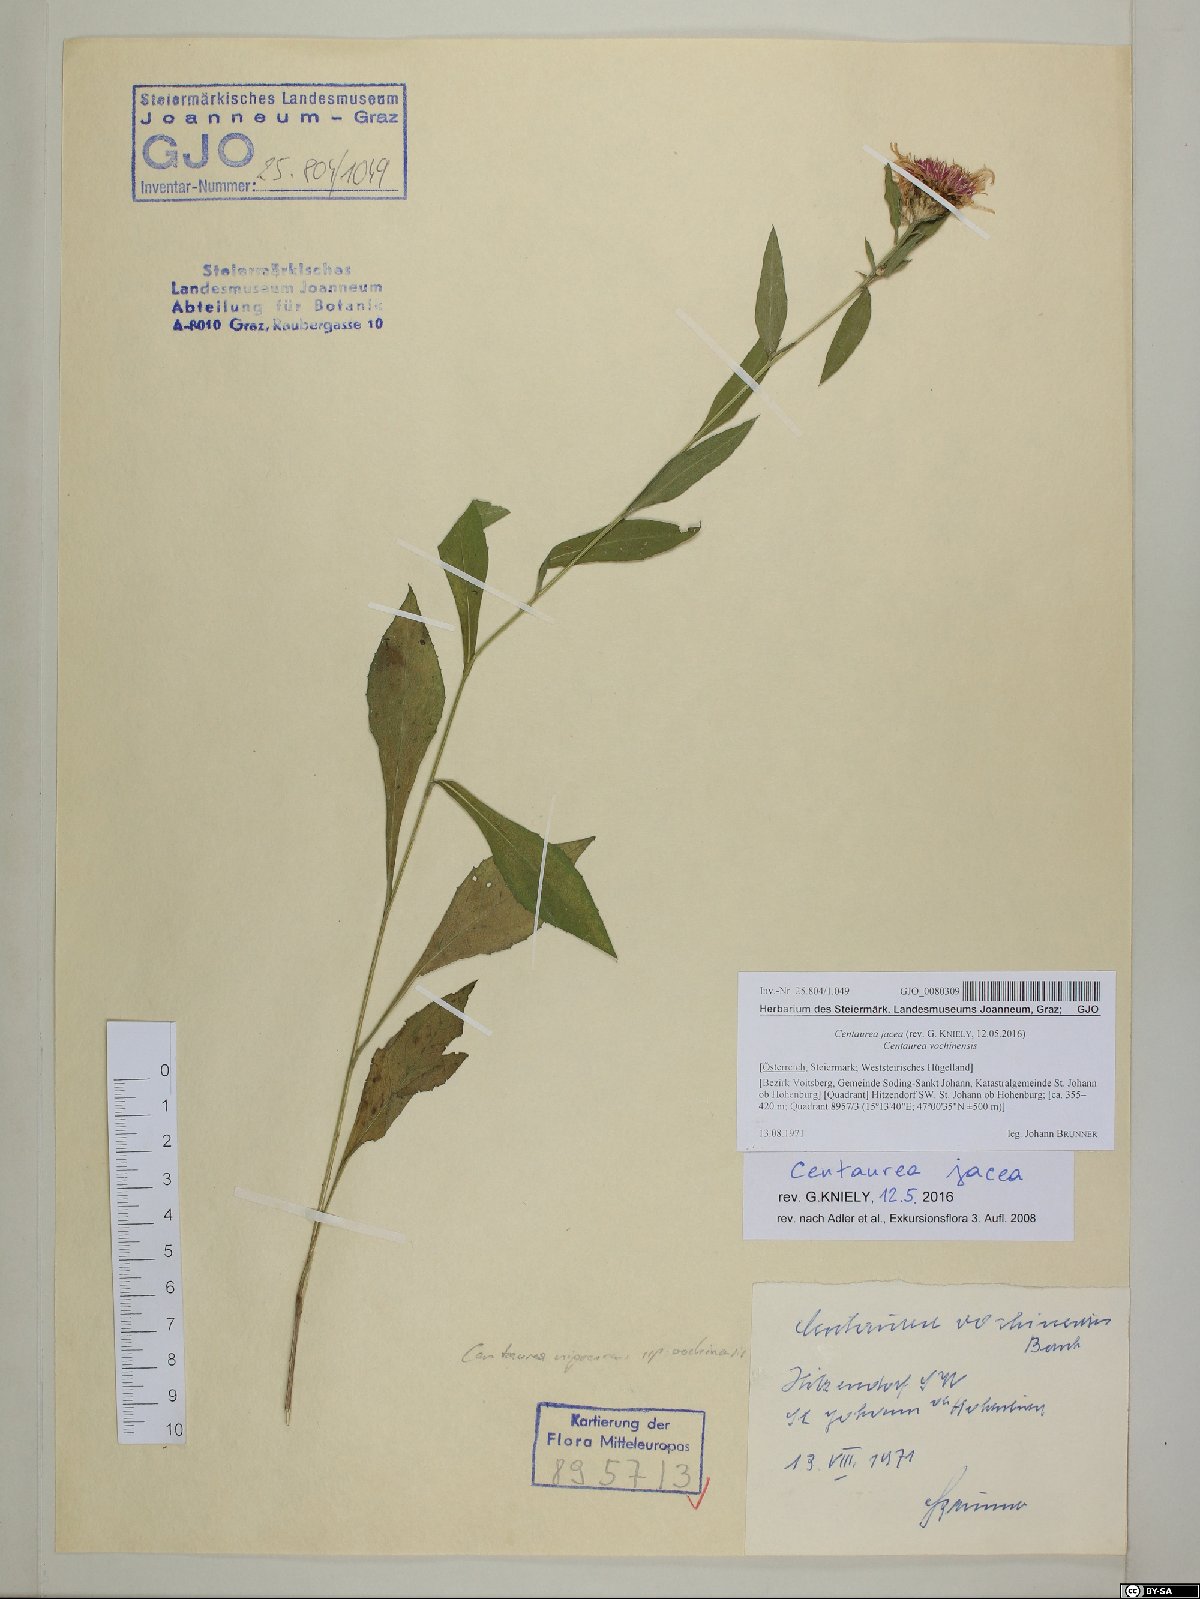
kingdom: Plantae
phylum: Tracheophyta
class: Magnoliopsida
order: Asterales
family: Asteraceae
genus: Centaurea
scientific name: Centaurea jacea
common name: Brown knapweed
